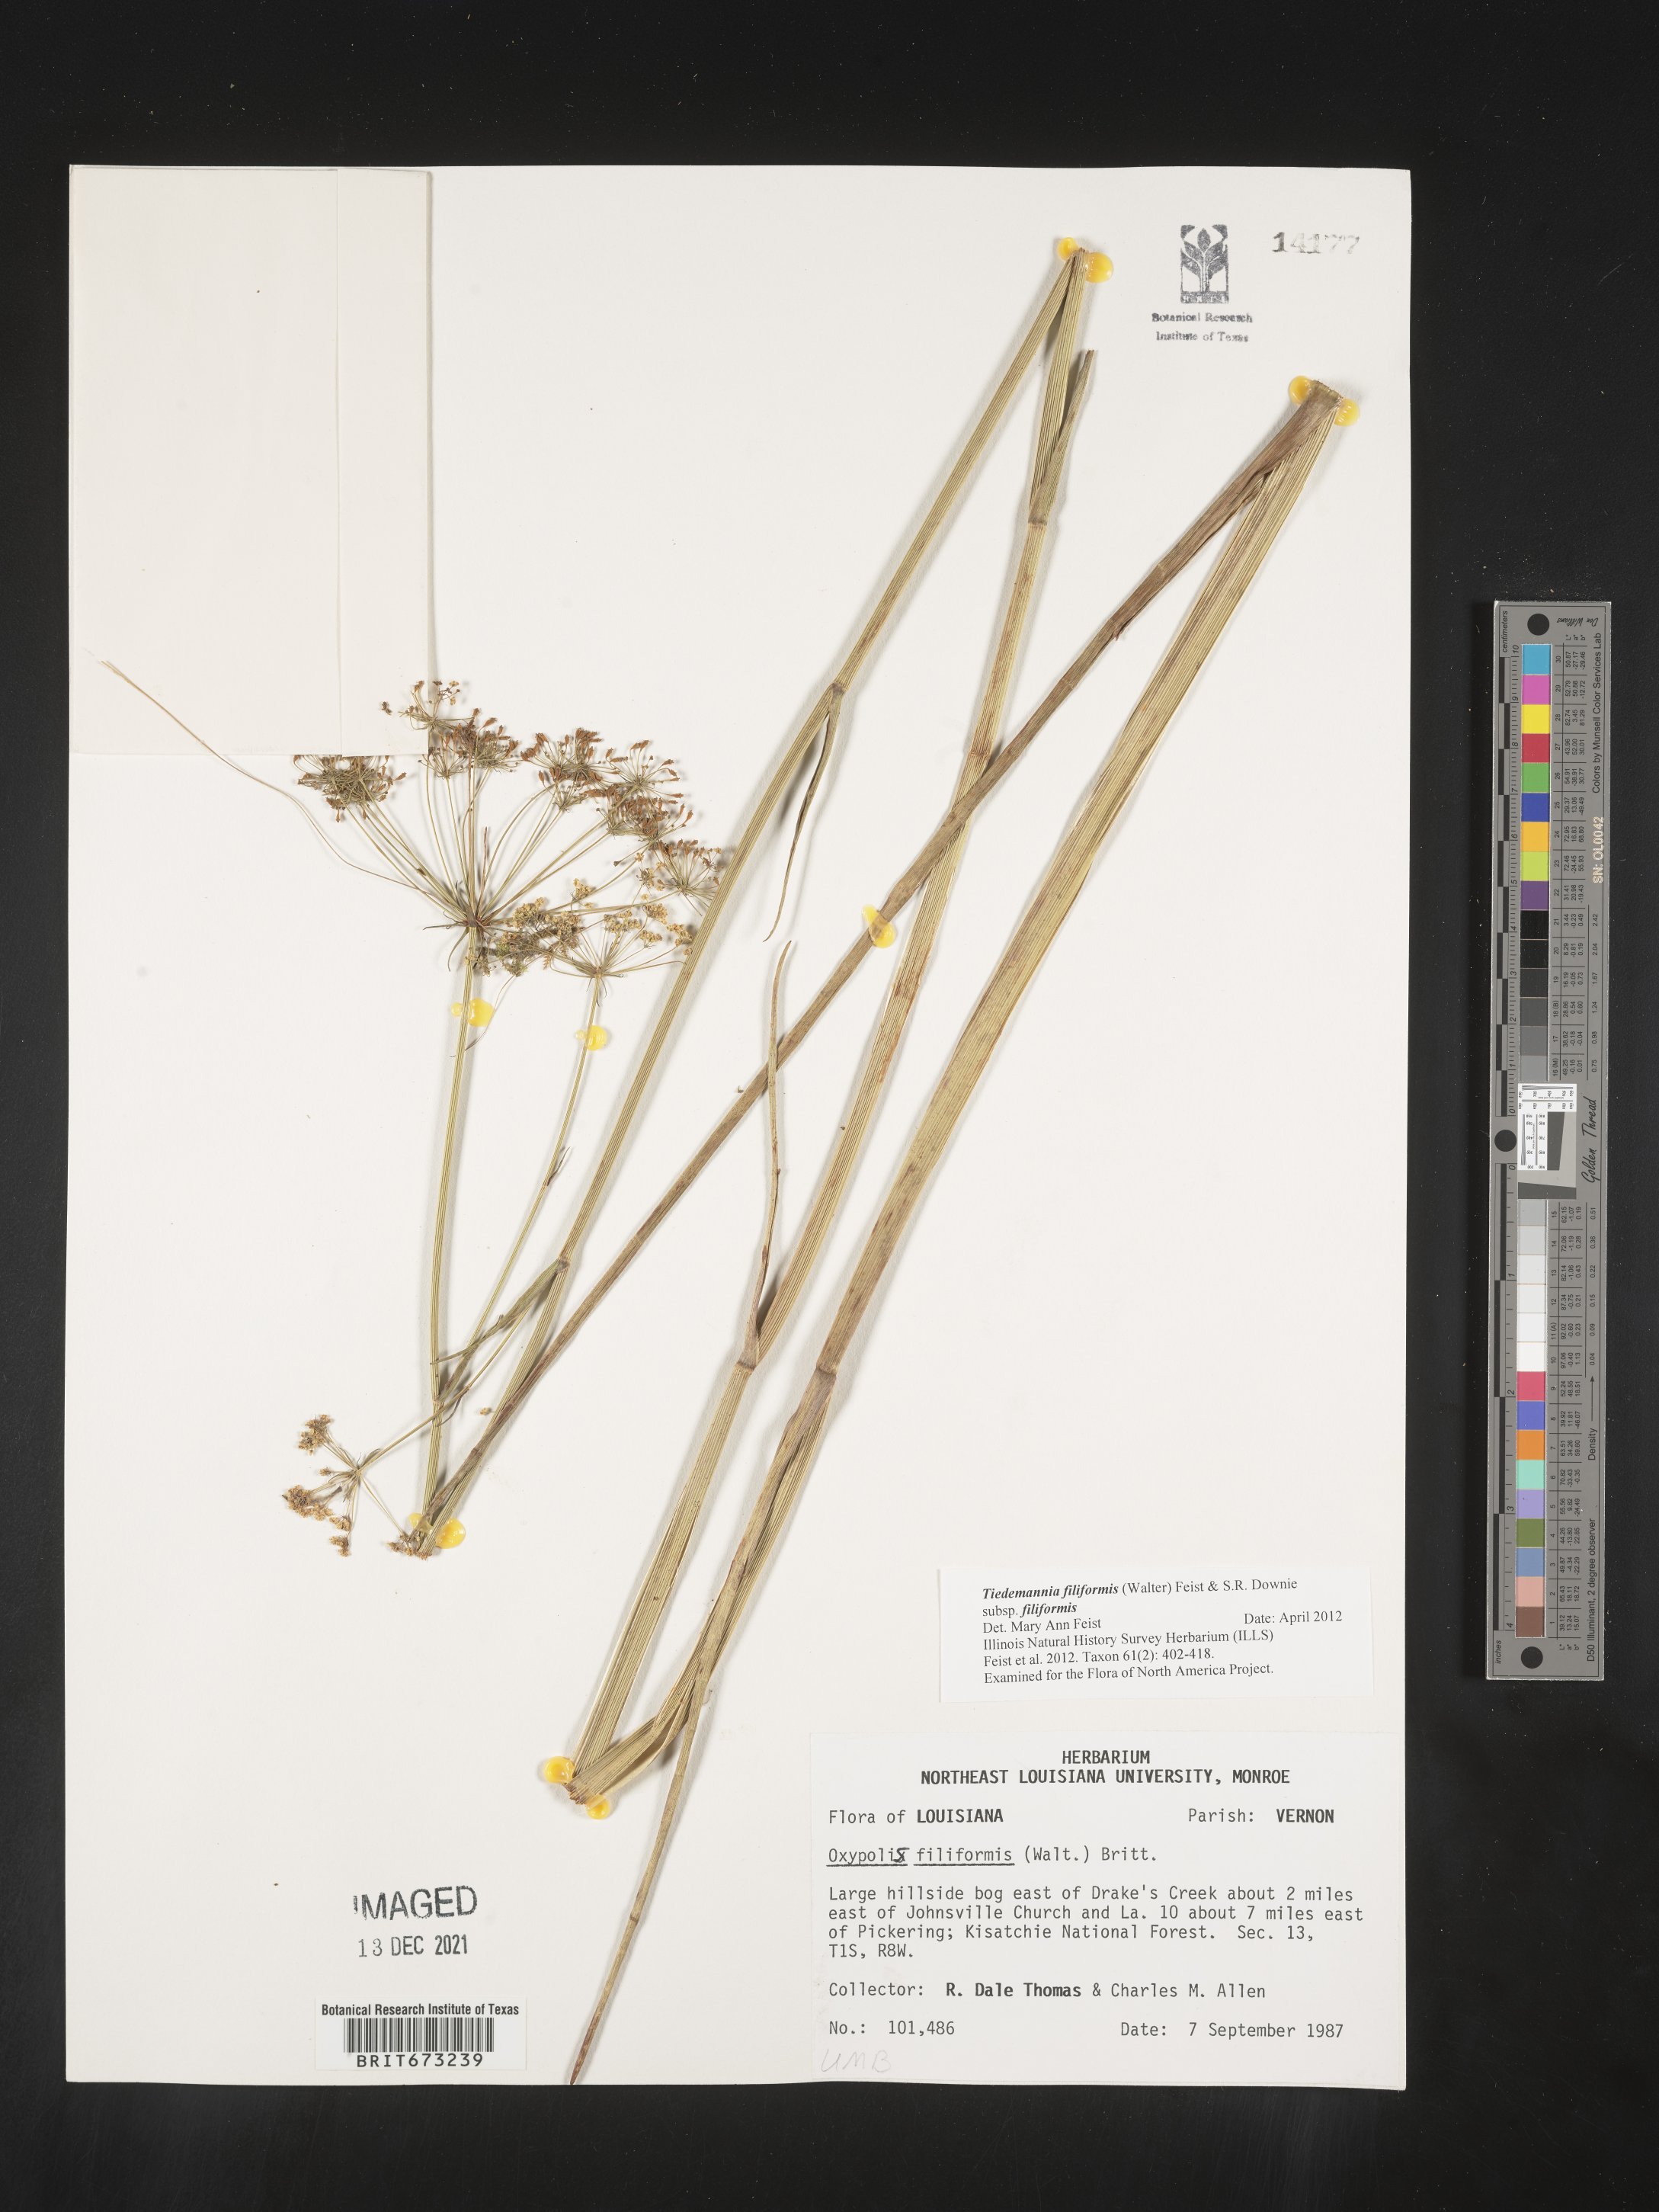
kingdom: Plantae
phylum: Tracheophyta
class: Magnoliopsida
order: Apiales
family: Apiaceae
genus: Tiedemannia
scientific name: Tiedemannia
